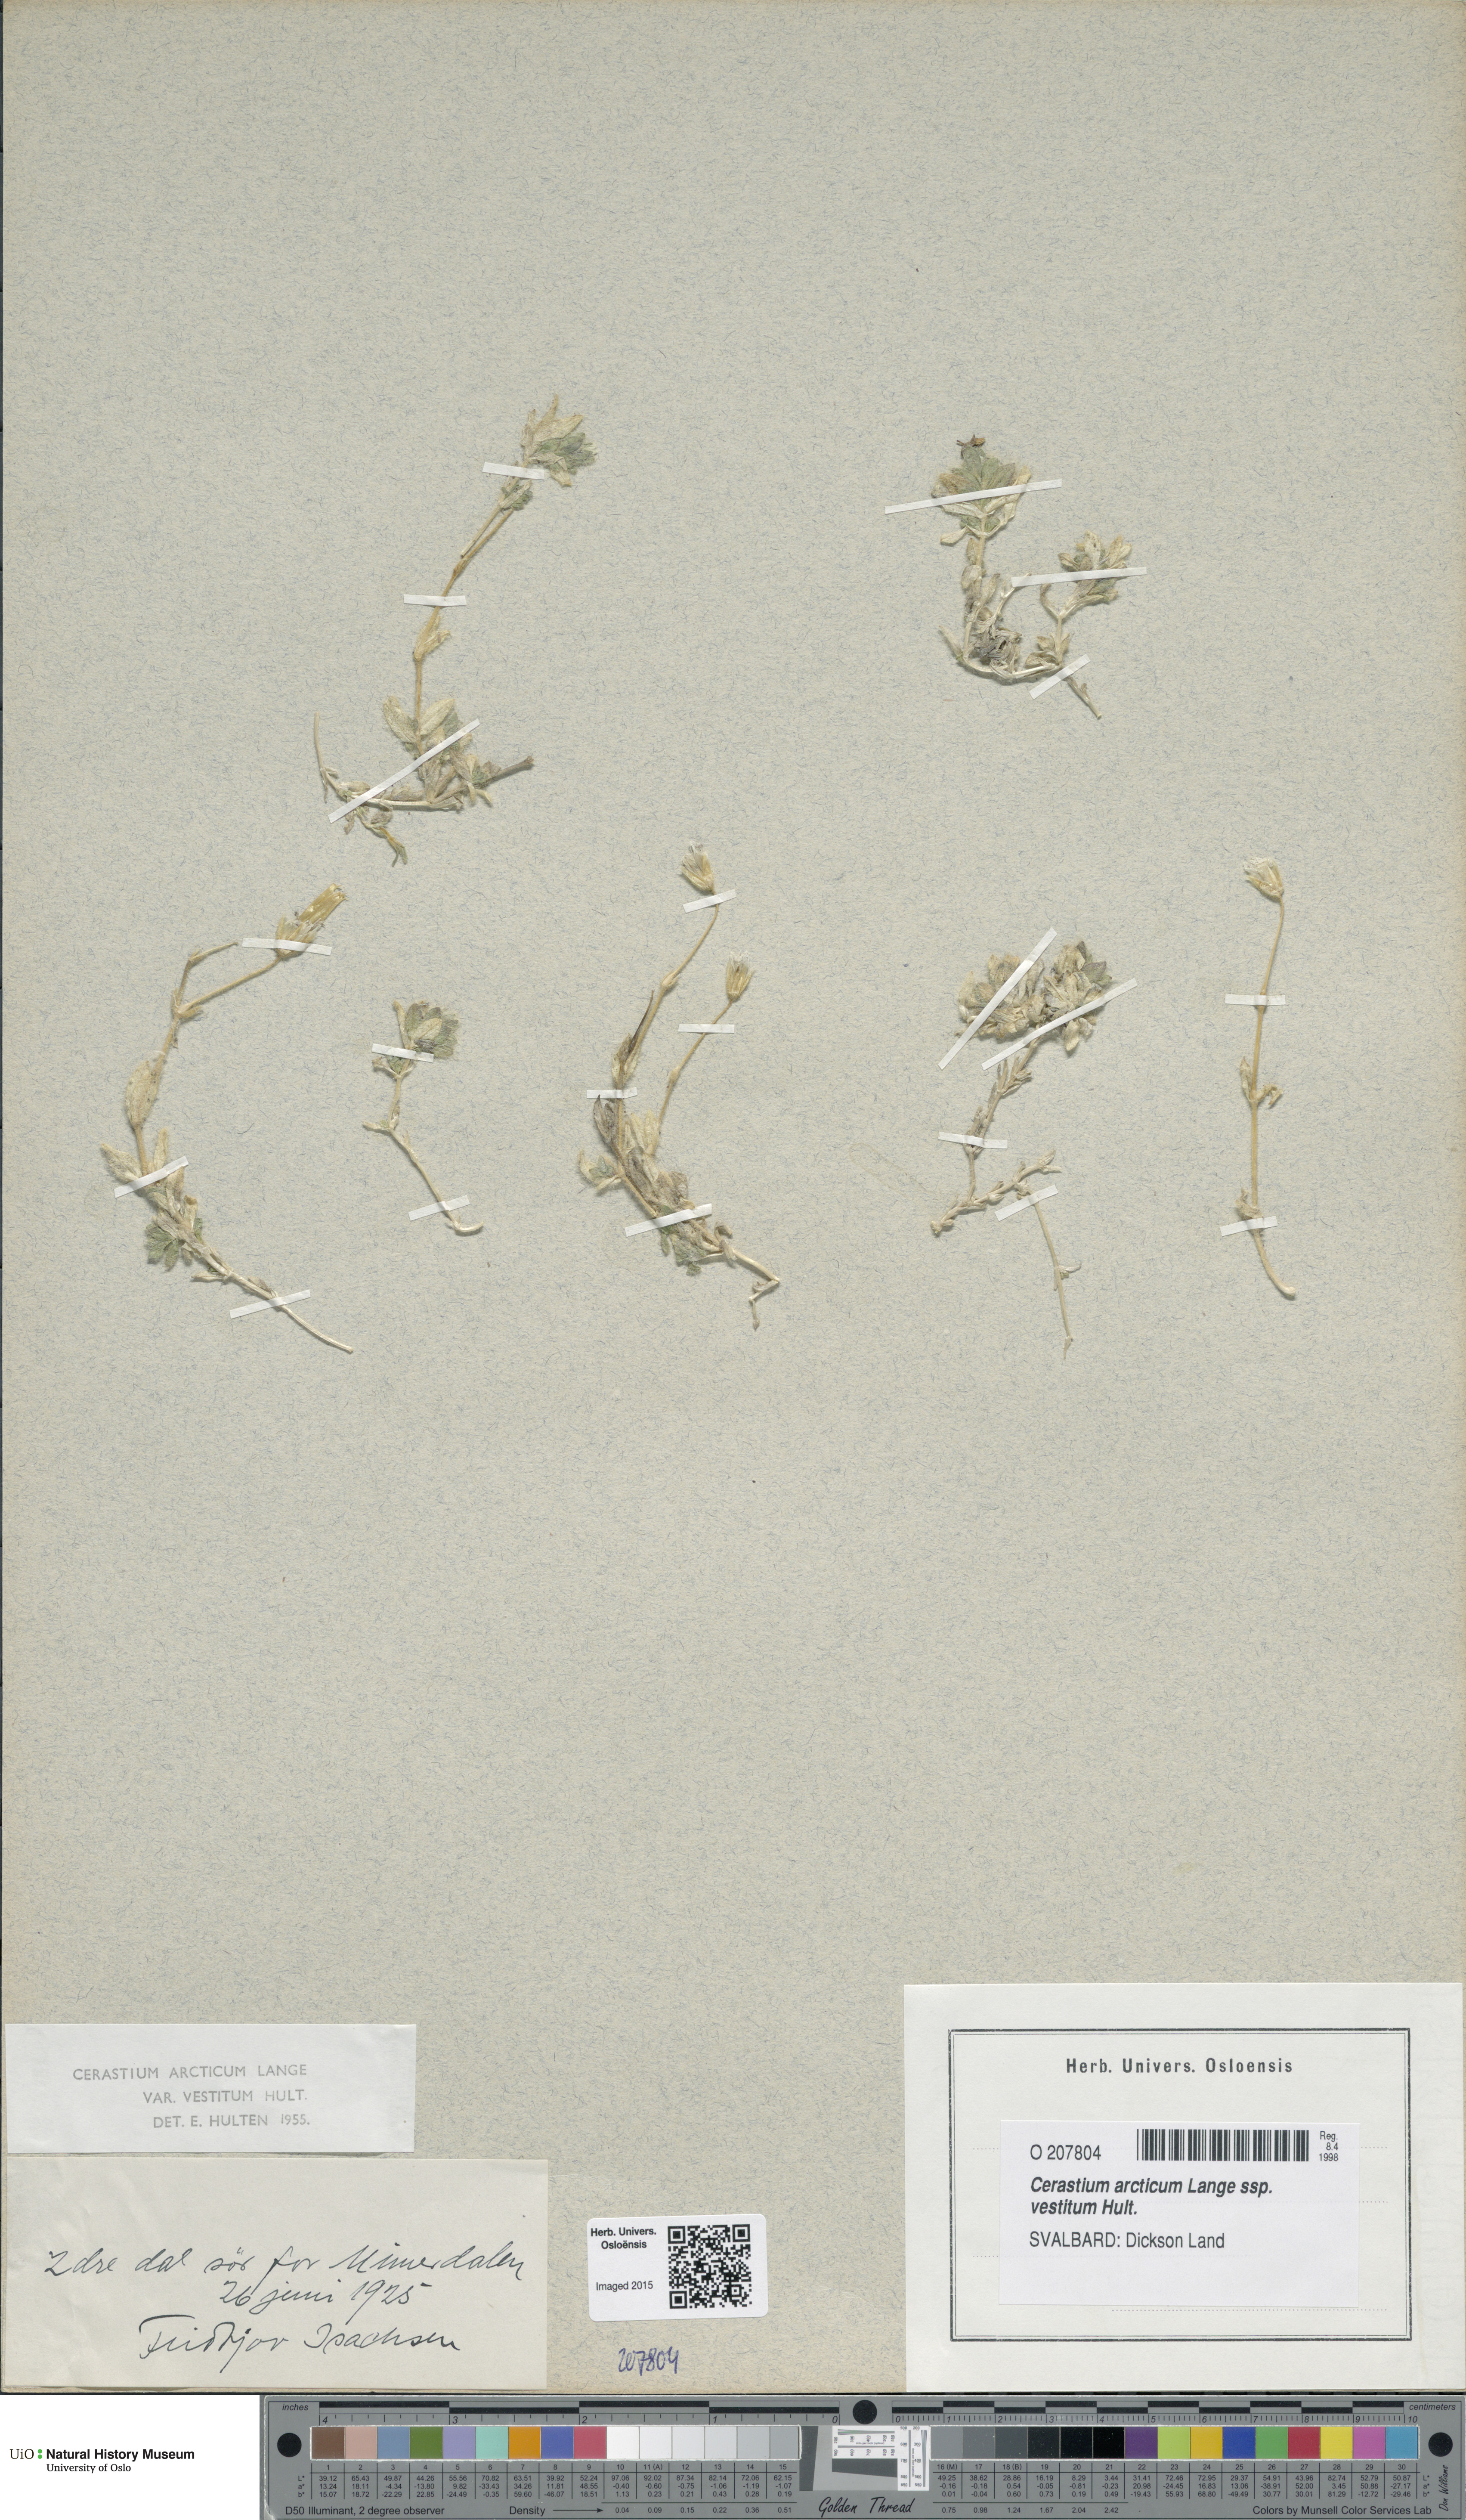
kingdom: Plantae
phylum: Tracheophyta
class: Magnoliopsida
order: Caryophyllales
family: Caryophyllaceae
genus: Cerastium
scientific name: Cerastium arcticum
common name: Arctic mouse-ear
